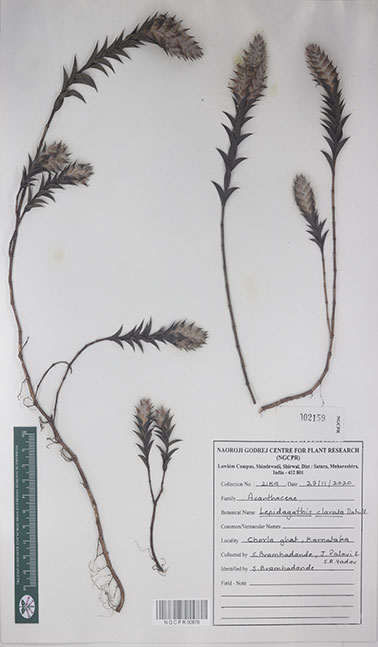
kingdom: Plantae
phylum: Tracheophyta
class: Magnoliopsida
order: Lamiales
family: Acanthaceae
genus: Lepidagathis
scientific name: Lepidagathis clavata
